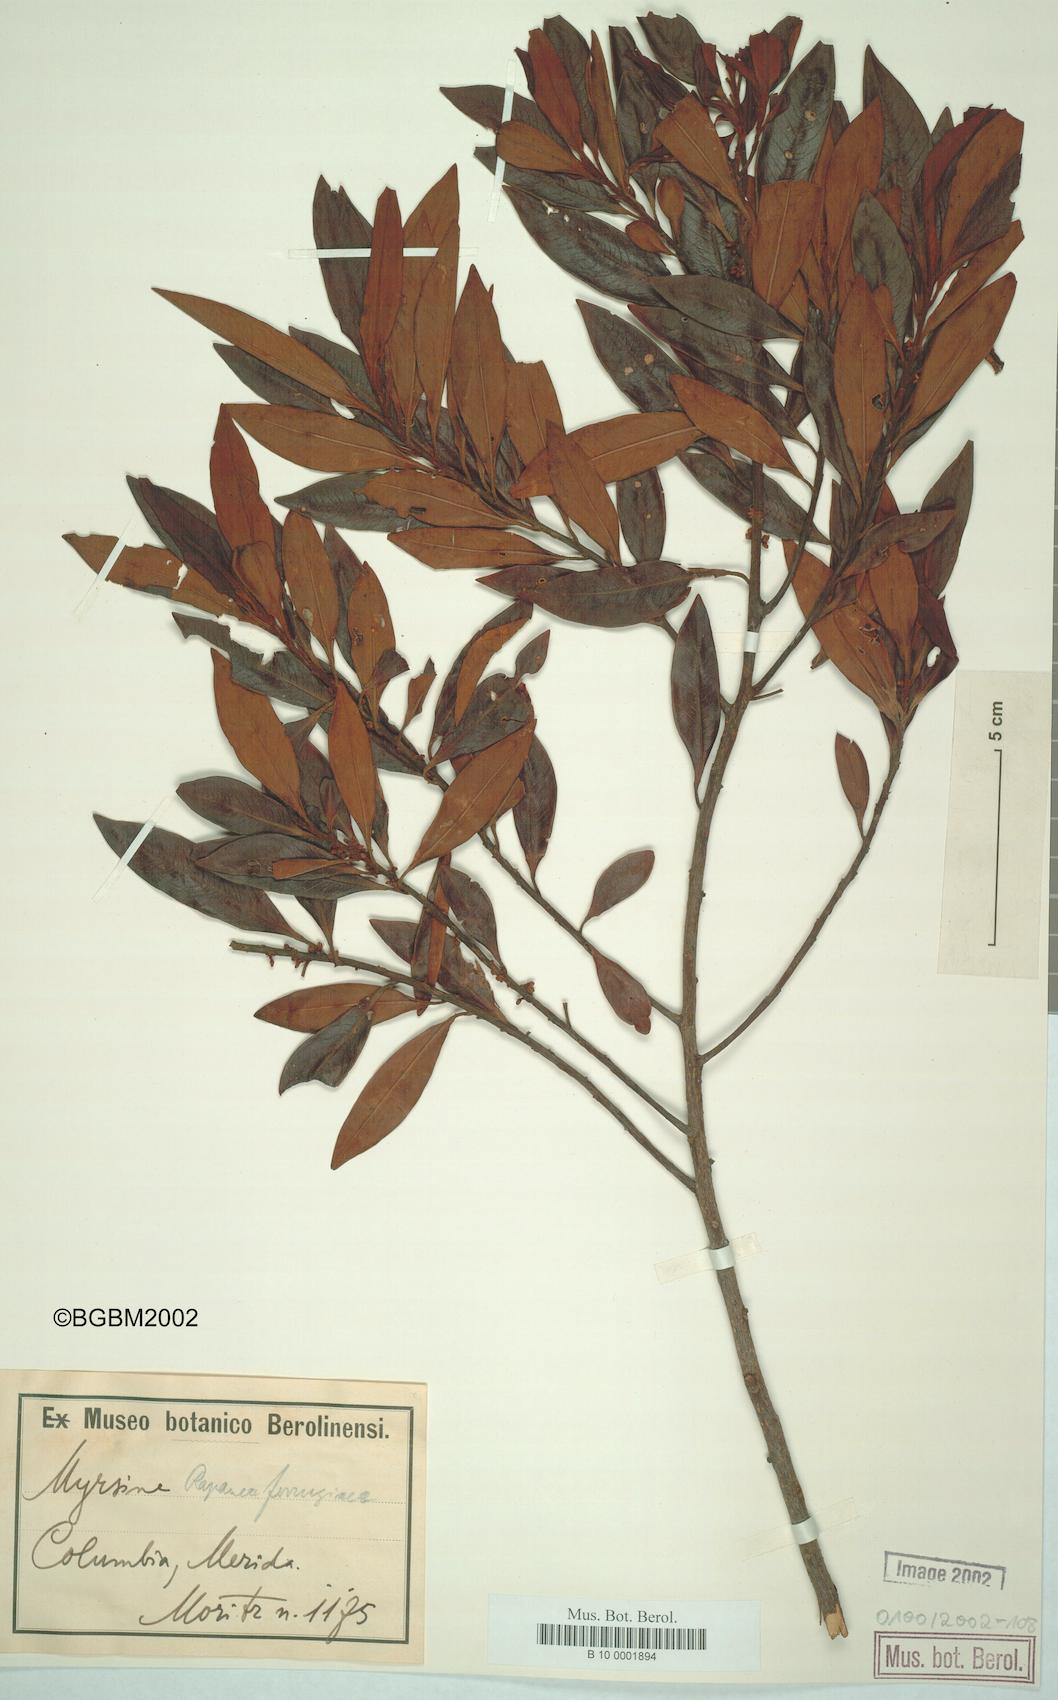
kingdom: Plantae
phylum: Tracheophyta
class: Magnoliopsida
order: Ericales
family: Primulaceae
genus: Myrsine
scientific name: Myrsine coriacea
